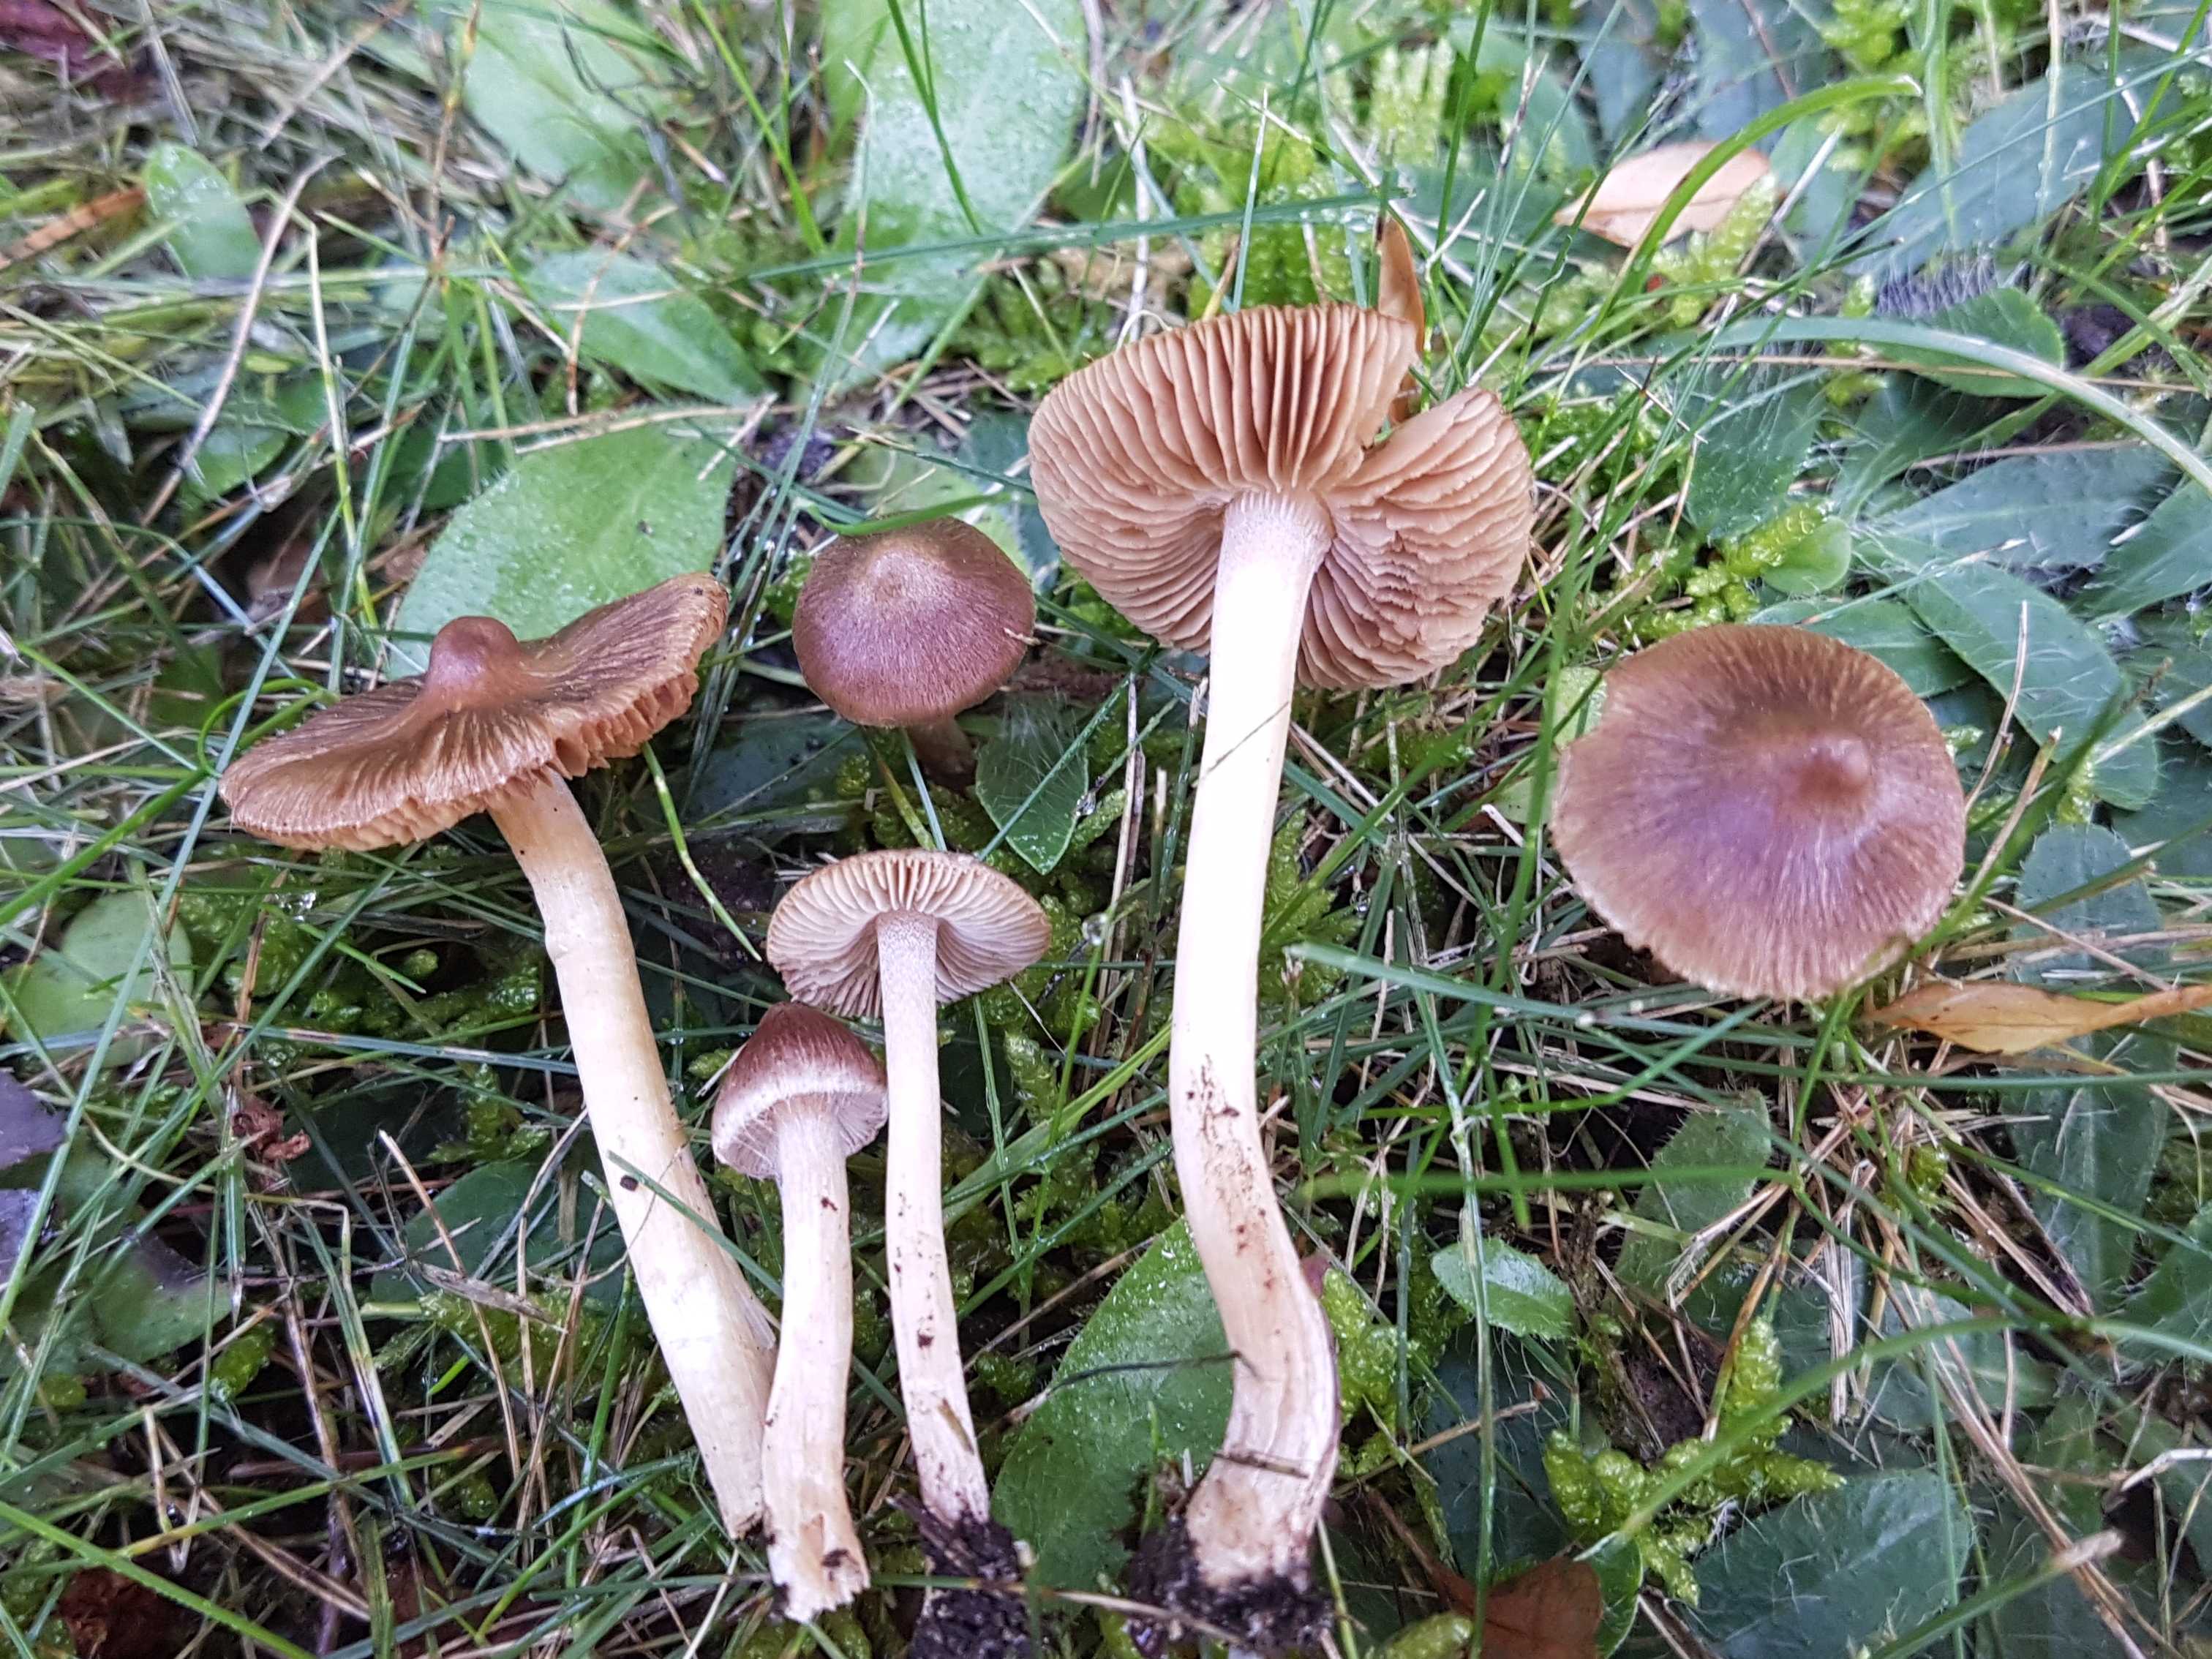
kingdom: Fungi
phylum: Basidiomycota
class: Agaricomycetes
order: Agaricales
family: Inocybaceae
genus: Inocybe
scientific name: Inocybe
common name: trævlhat
